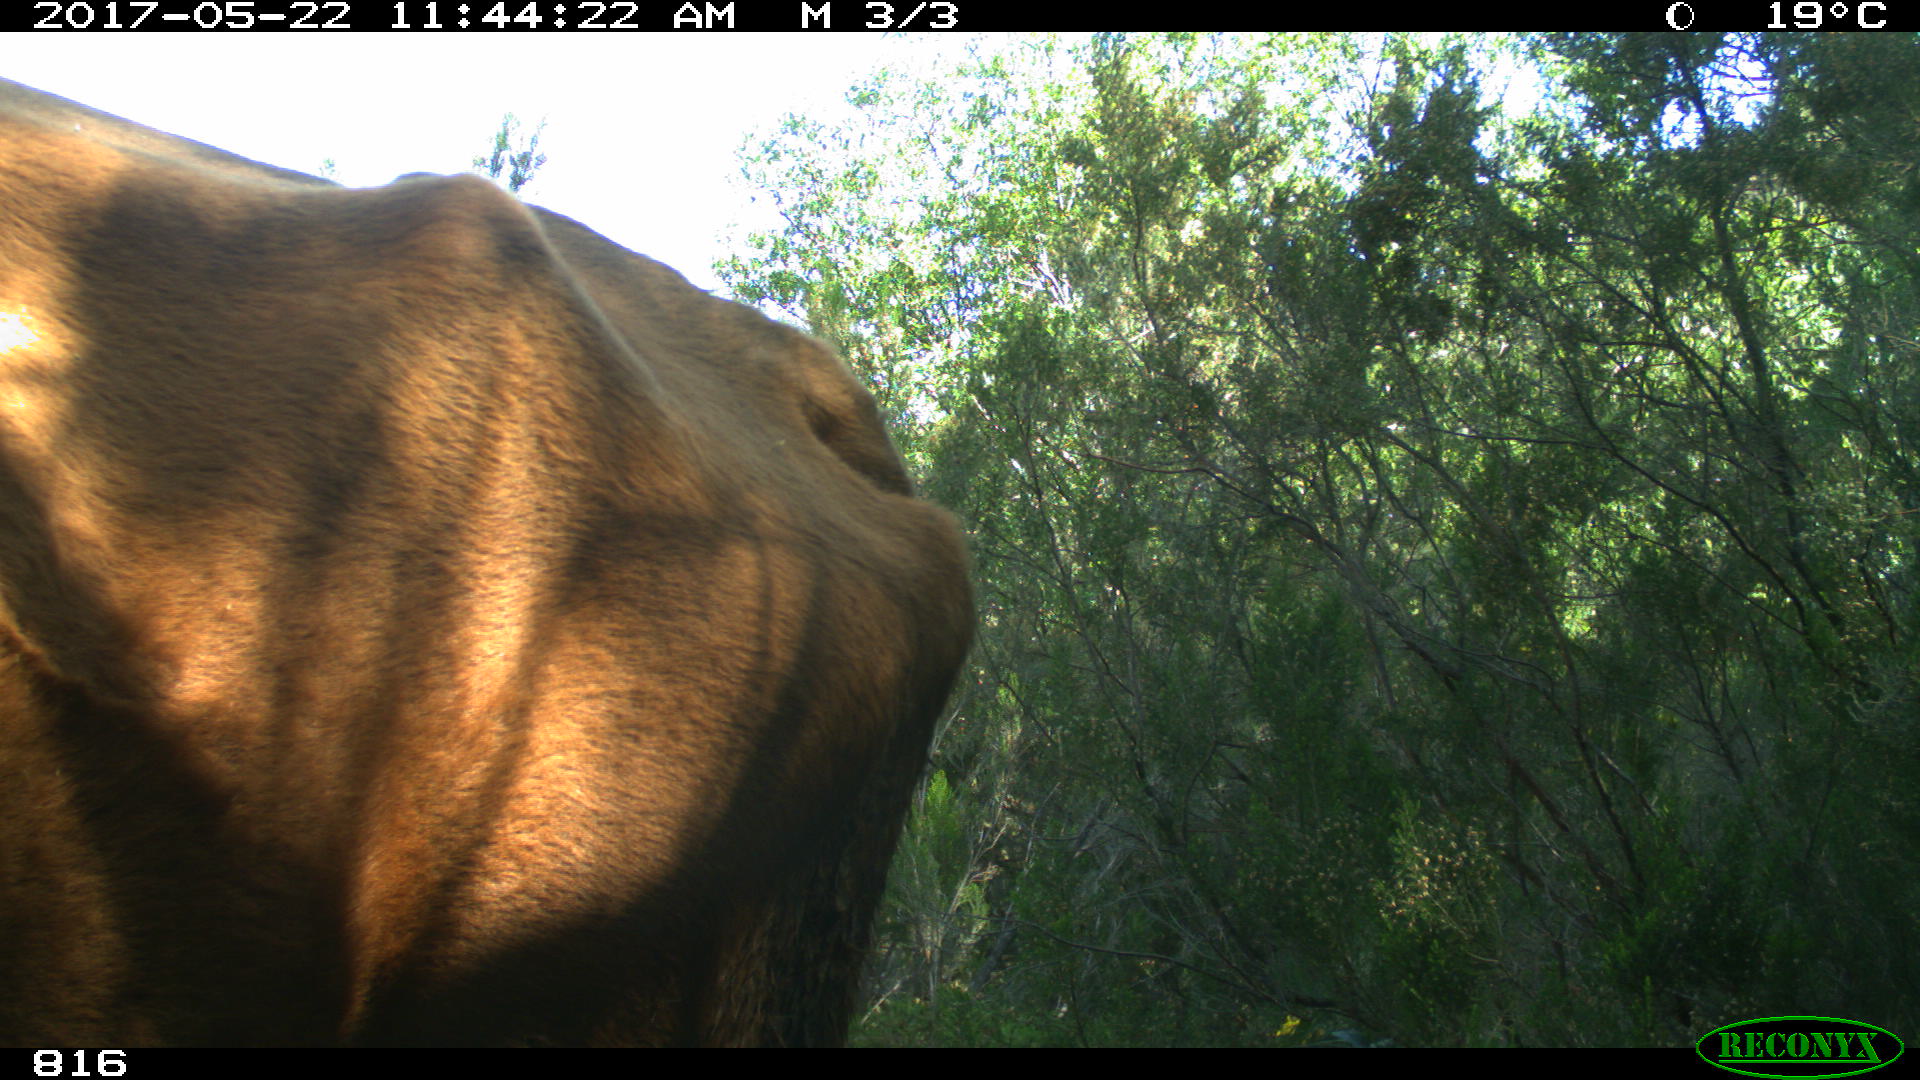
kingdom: Animalia
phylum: Chordata
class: Mammalia
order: Artiodactyla
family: Bovidae
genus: Bos
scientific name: Bos taurus
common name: Domesticated cattle
